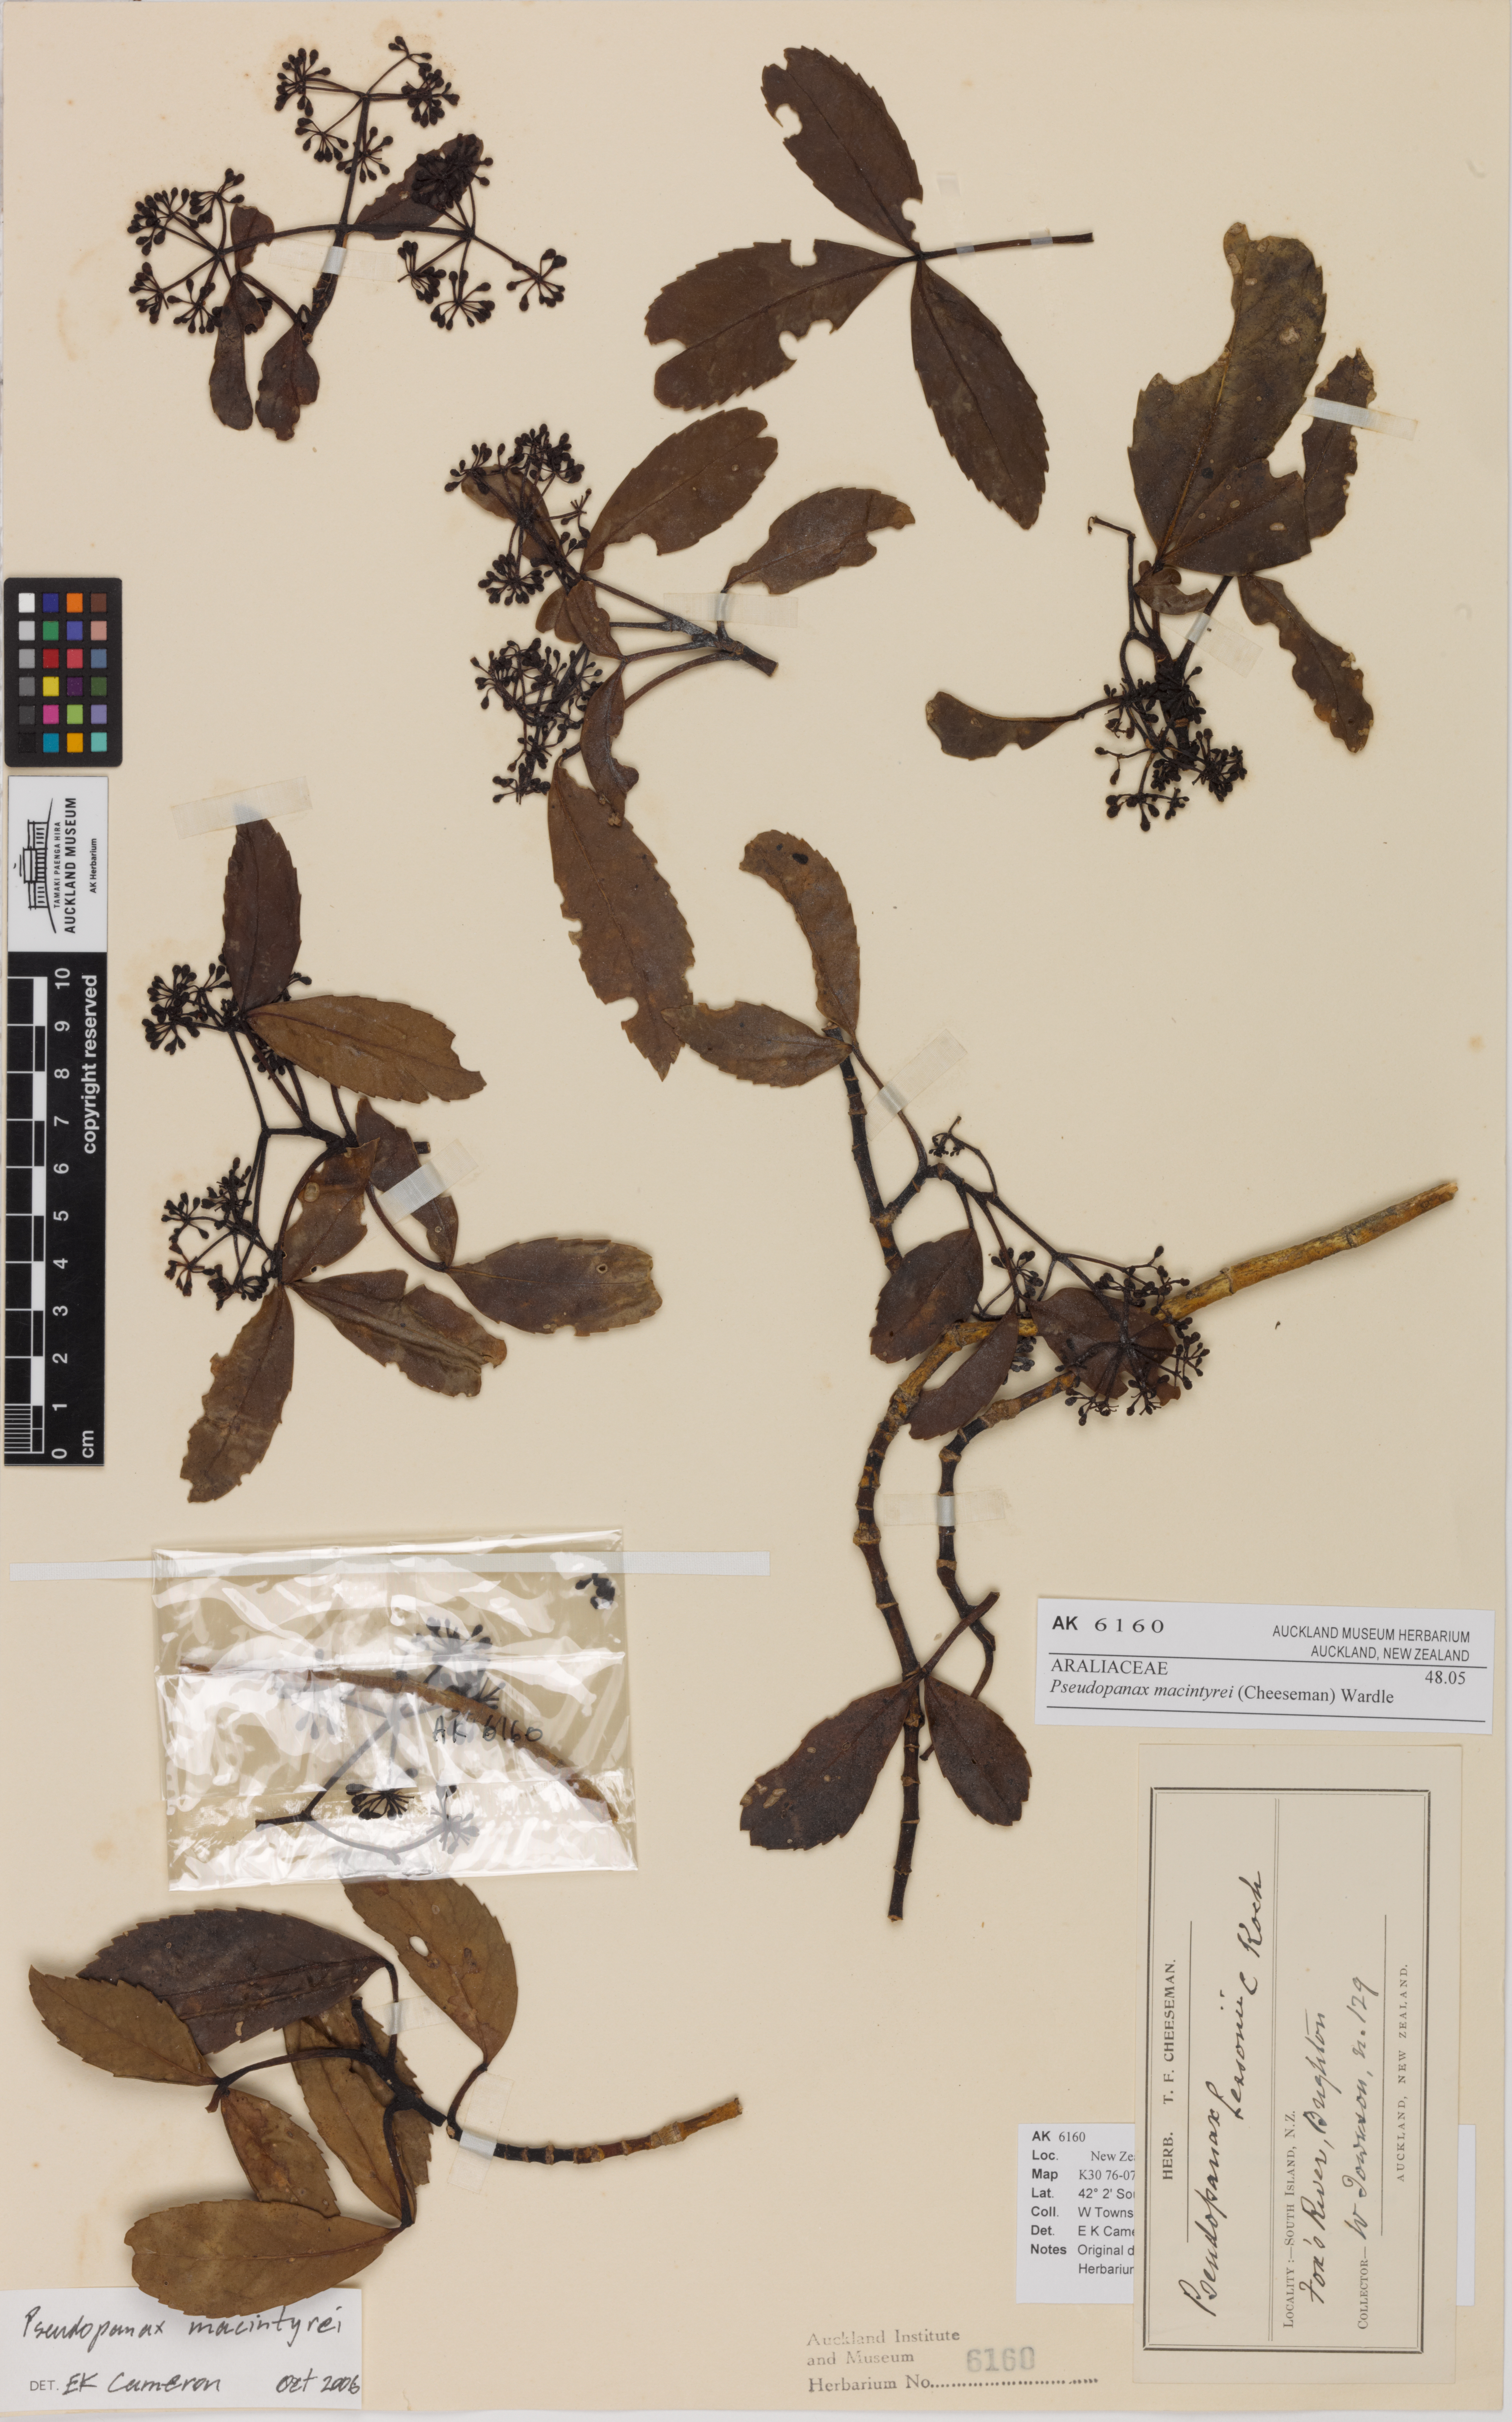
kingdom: Plantae
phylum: Tracheophyta
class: Magnoliopsida
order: Apiales
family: Araliaceae
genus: Neopanax
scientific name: Neopanax macintyrei
